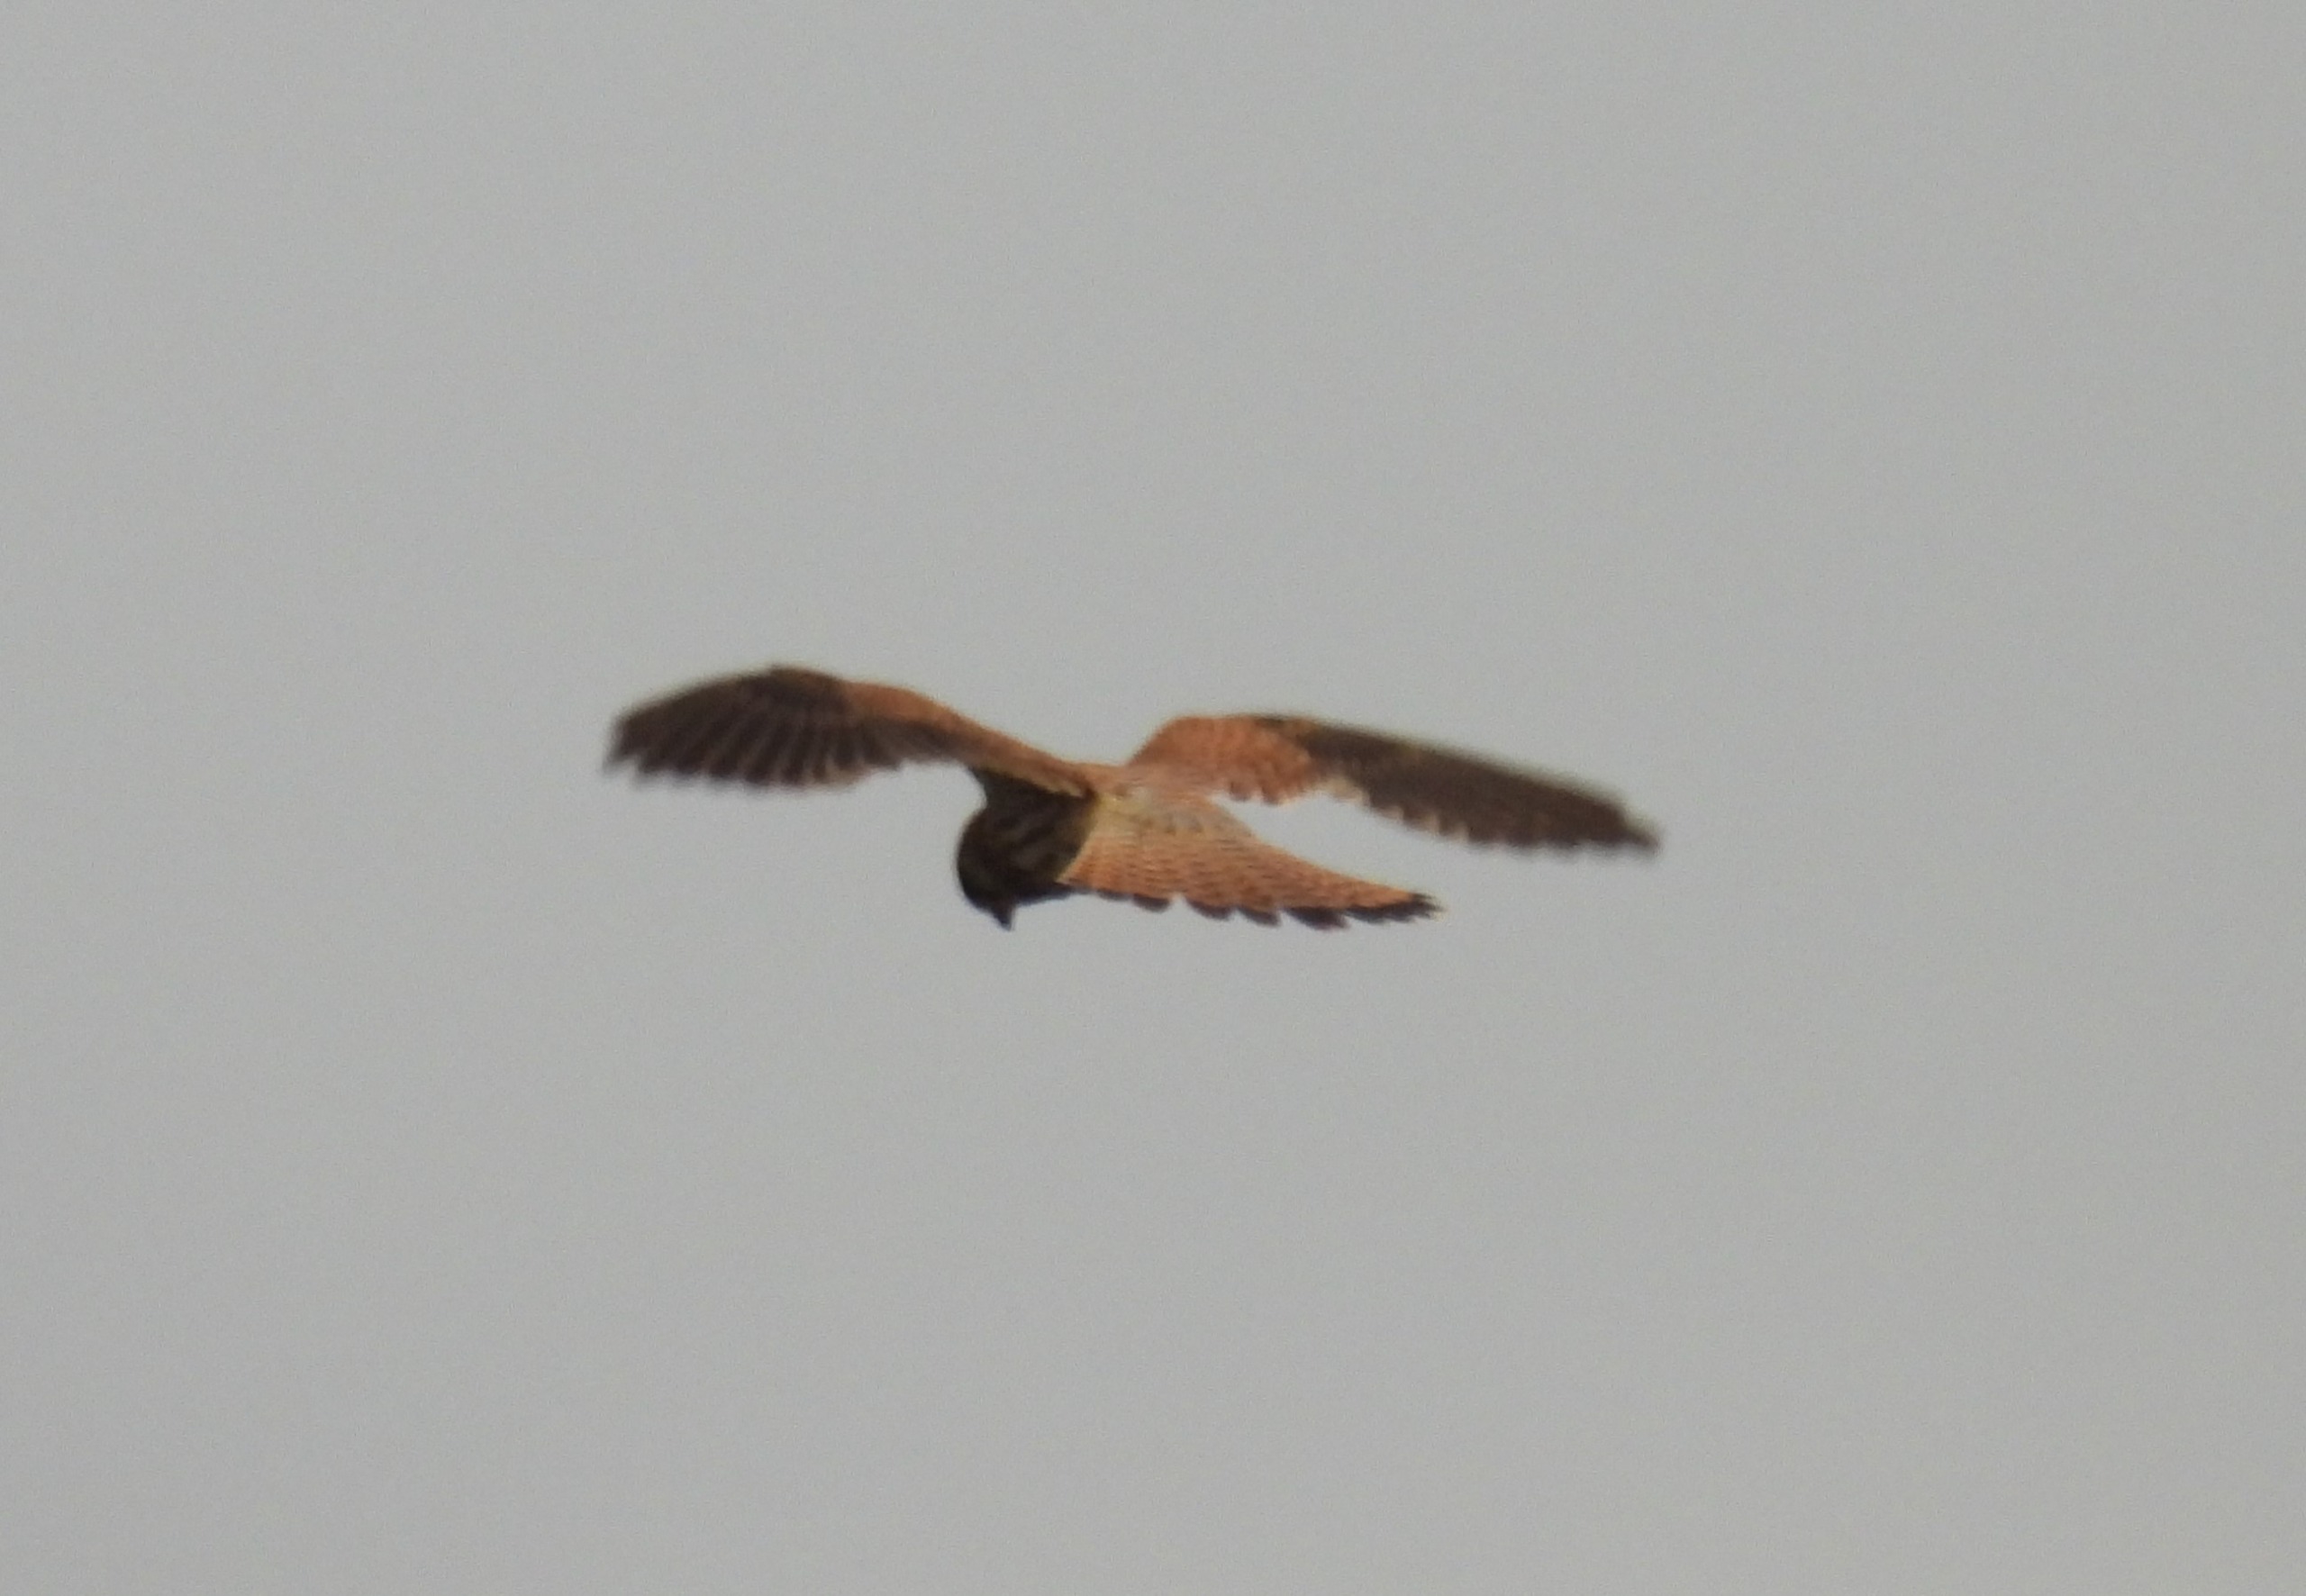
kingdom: Animalia
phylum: Chordata
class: Aves
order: Falconiformes
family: Falconidae
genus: Falco
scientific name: Falco tinnunculus
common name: Tårnfalk
